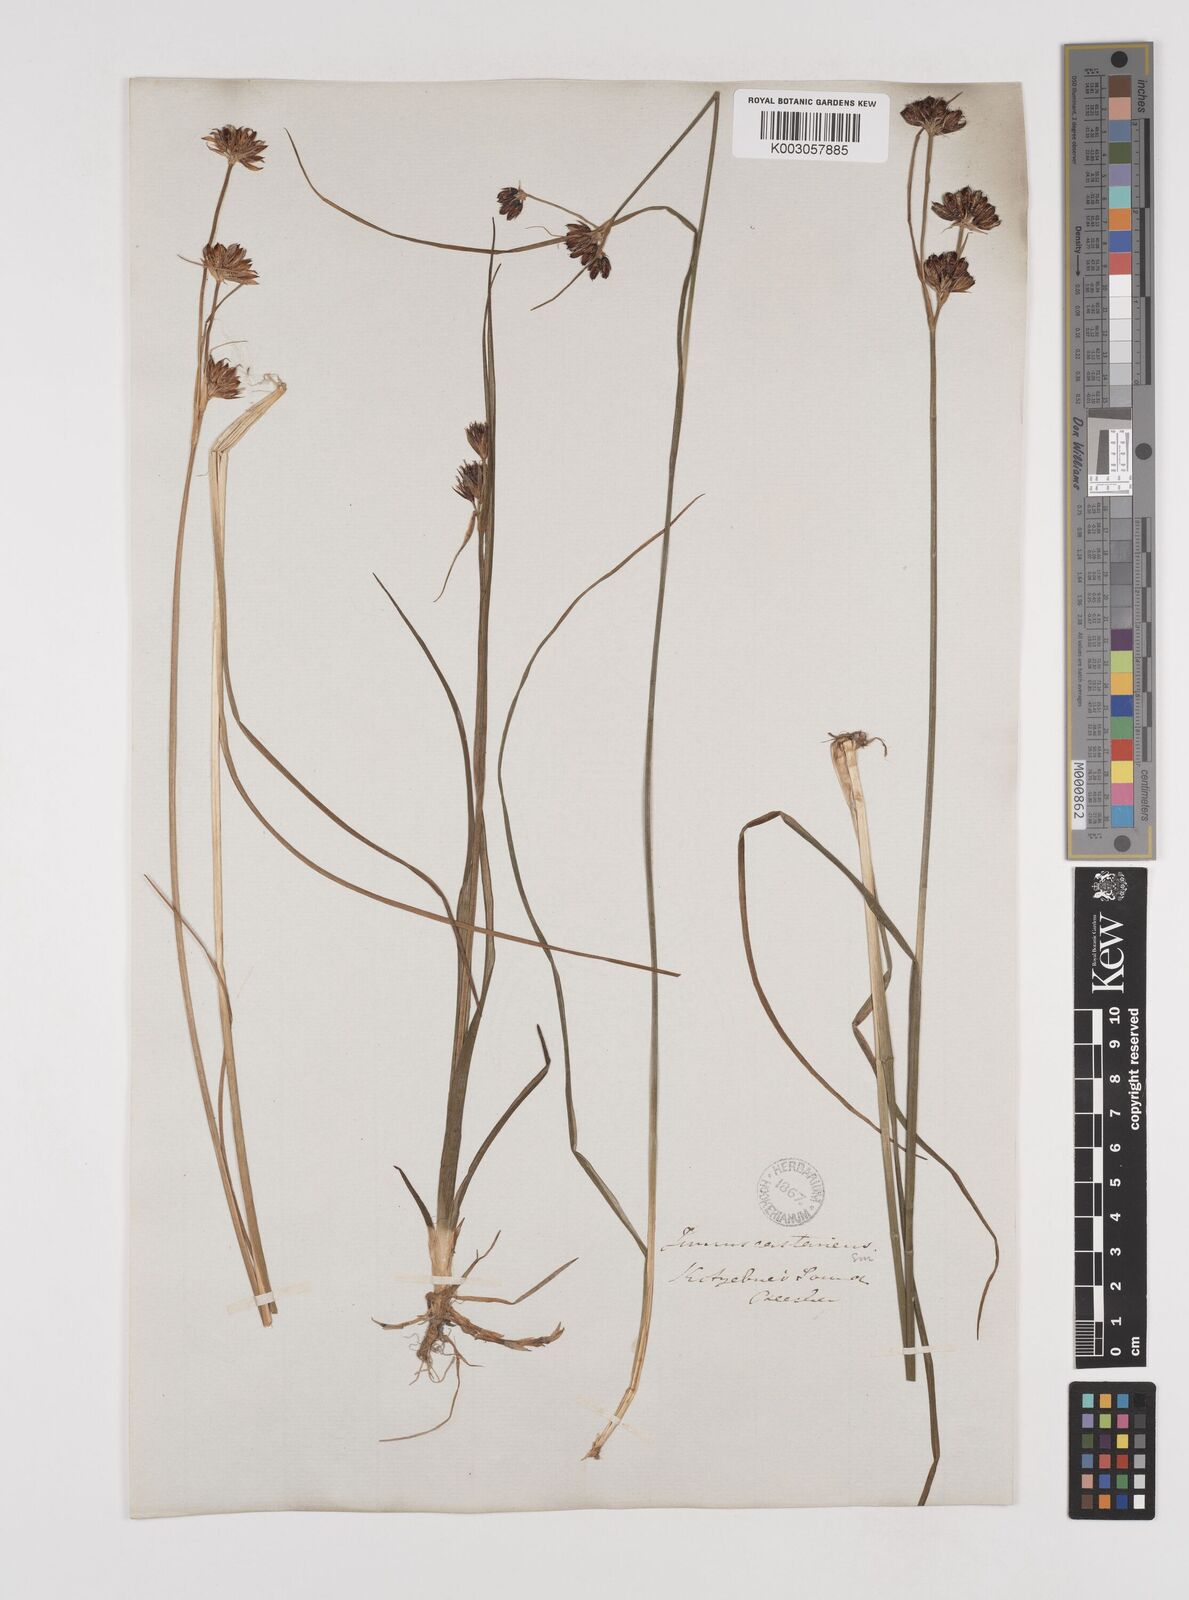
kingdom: Plantae
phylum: Tracheophyta
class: Liliopsida
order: Poales
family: Juncaceae
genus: Juncus
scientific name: Juncus castaneus
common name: Chestnut rush
